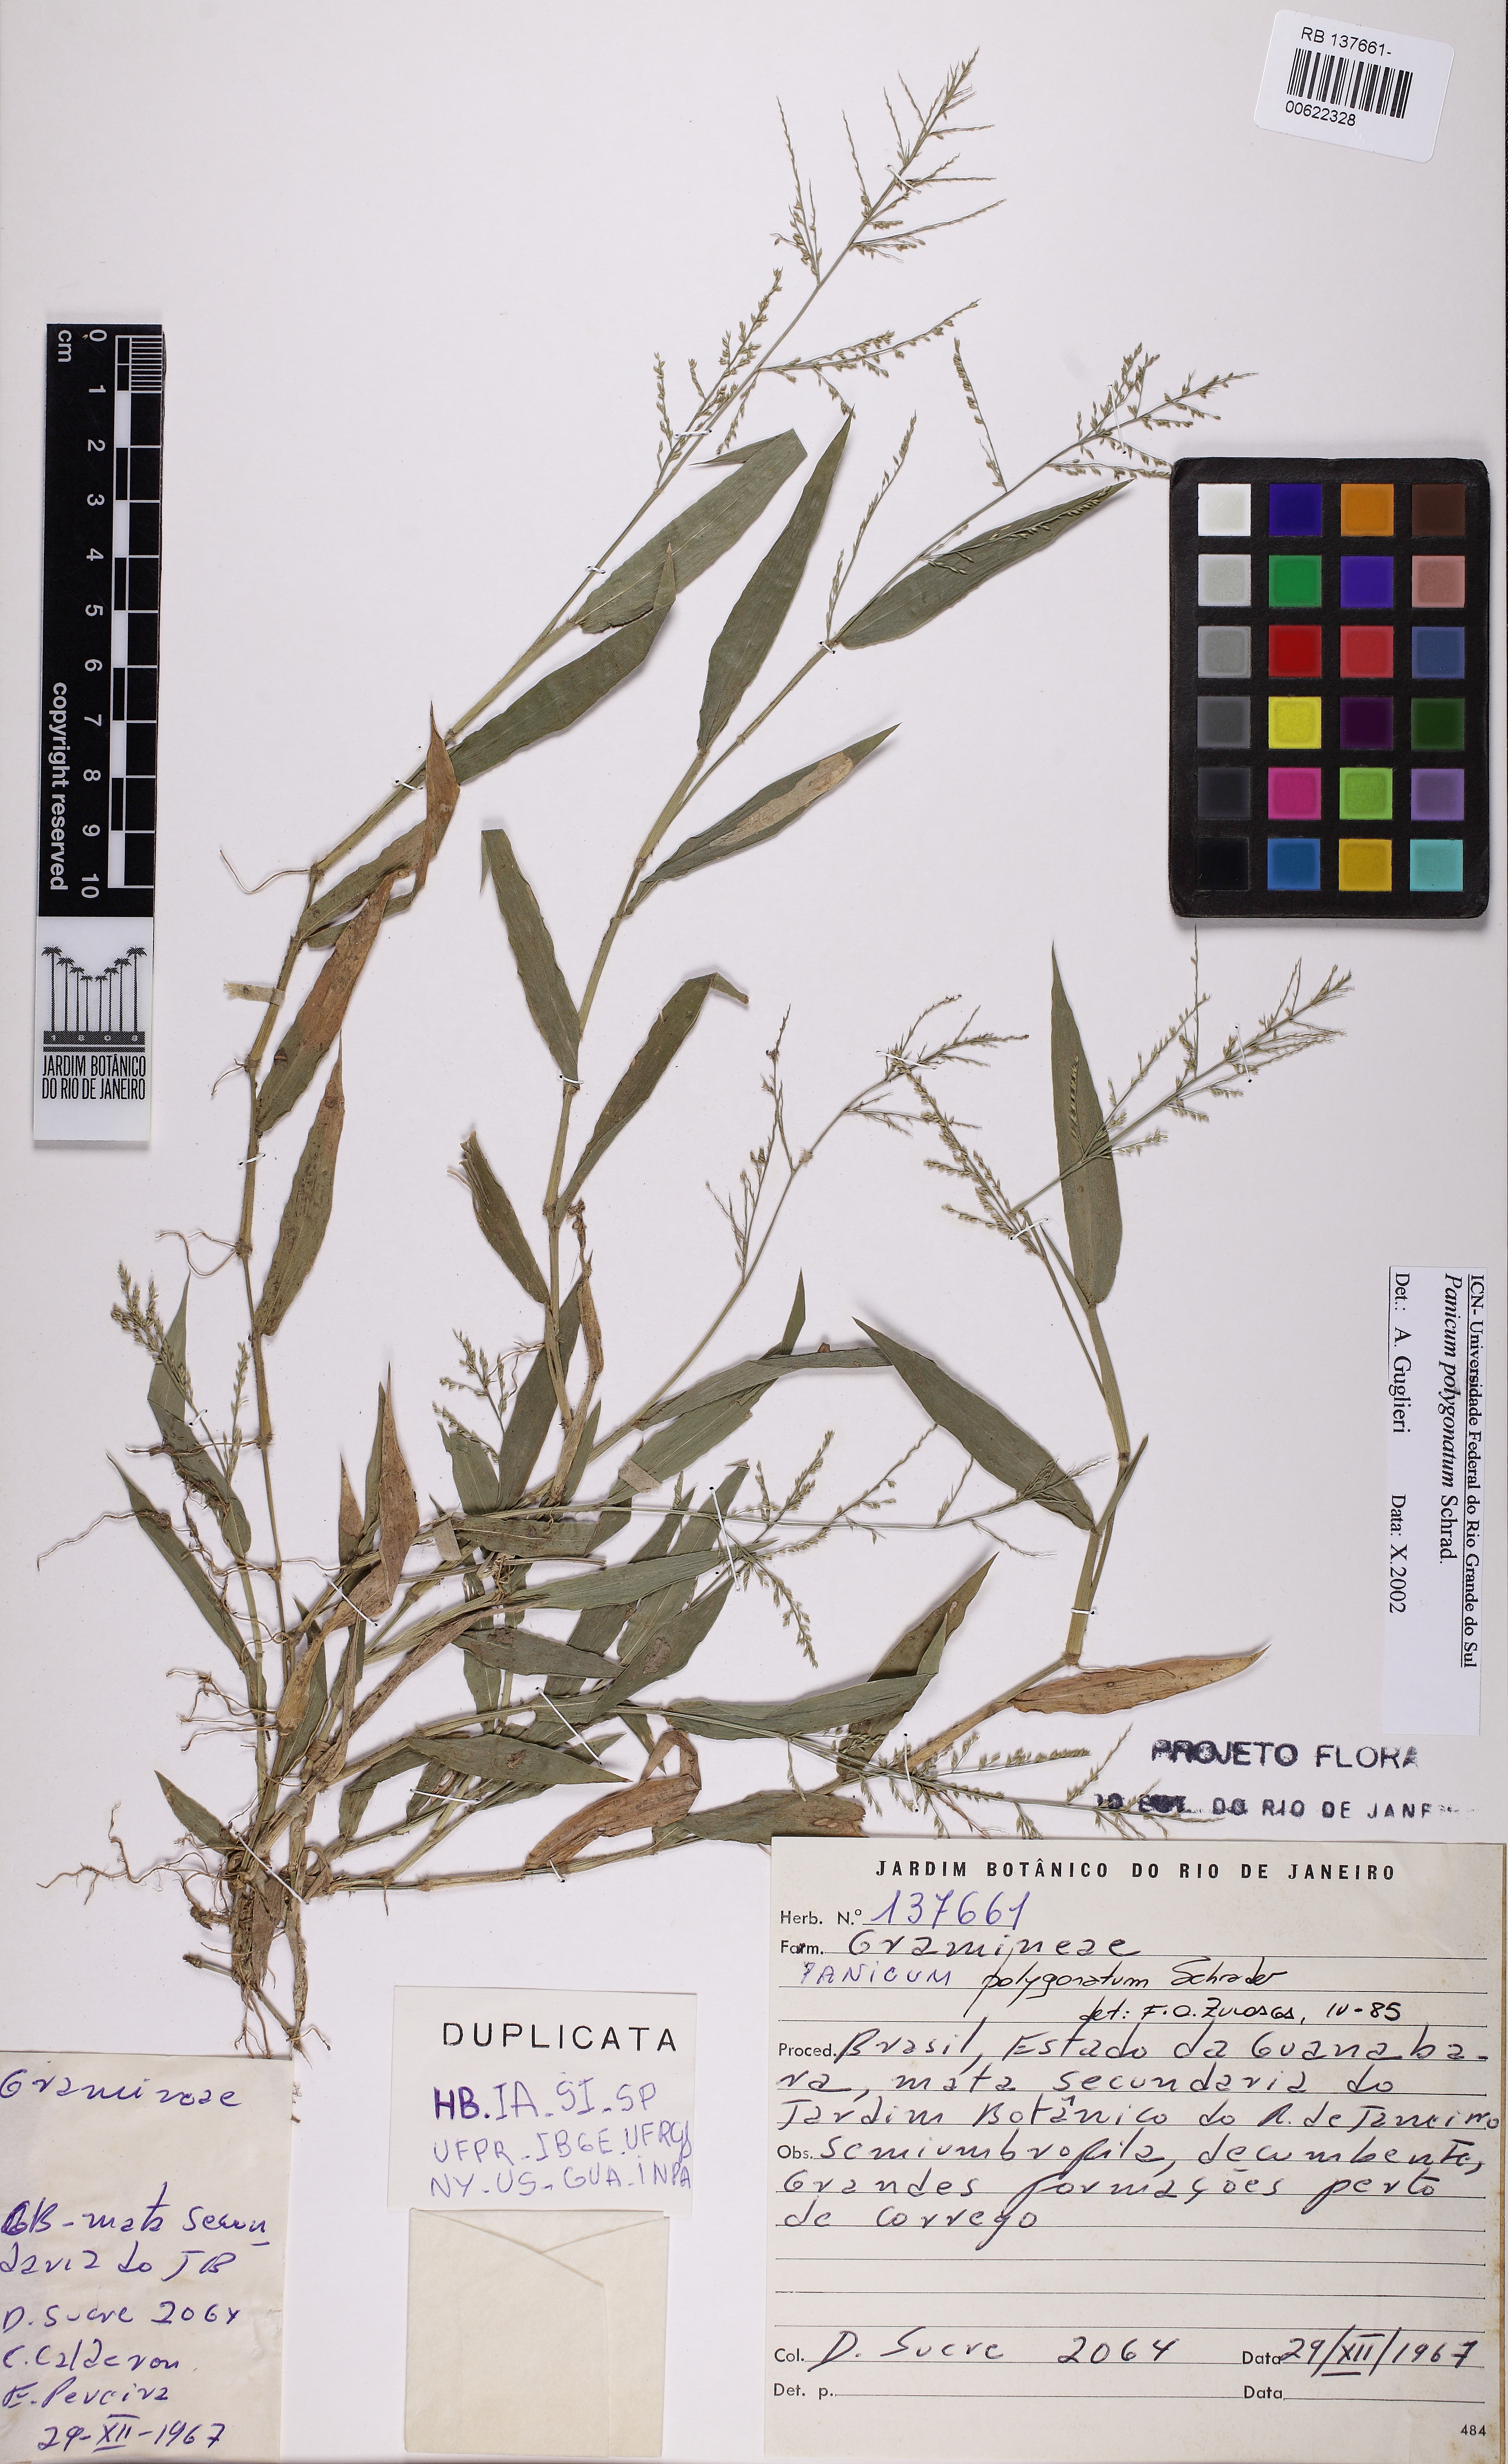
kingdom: Plantae
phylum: Tracheophyta
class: Liliopsida
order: Poales
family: Poaceae
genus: Rugoloa
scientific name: Rugoloa polygonata
